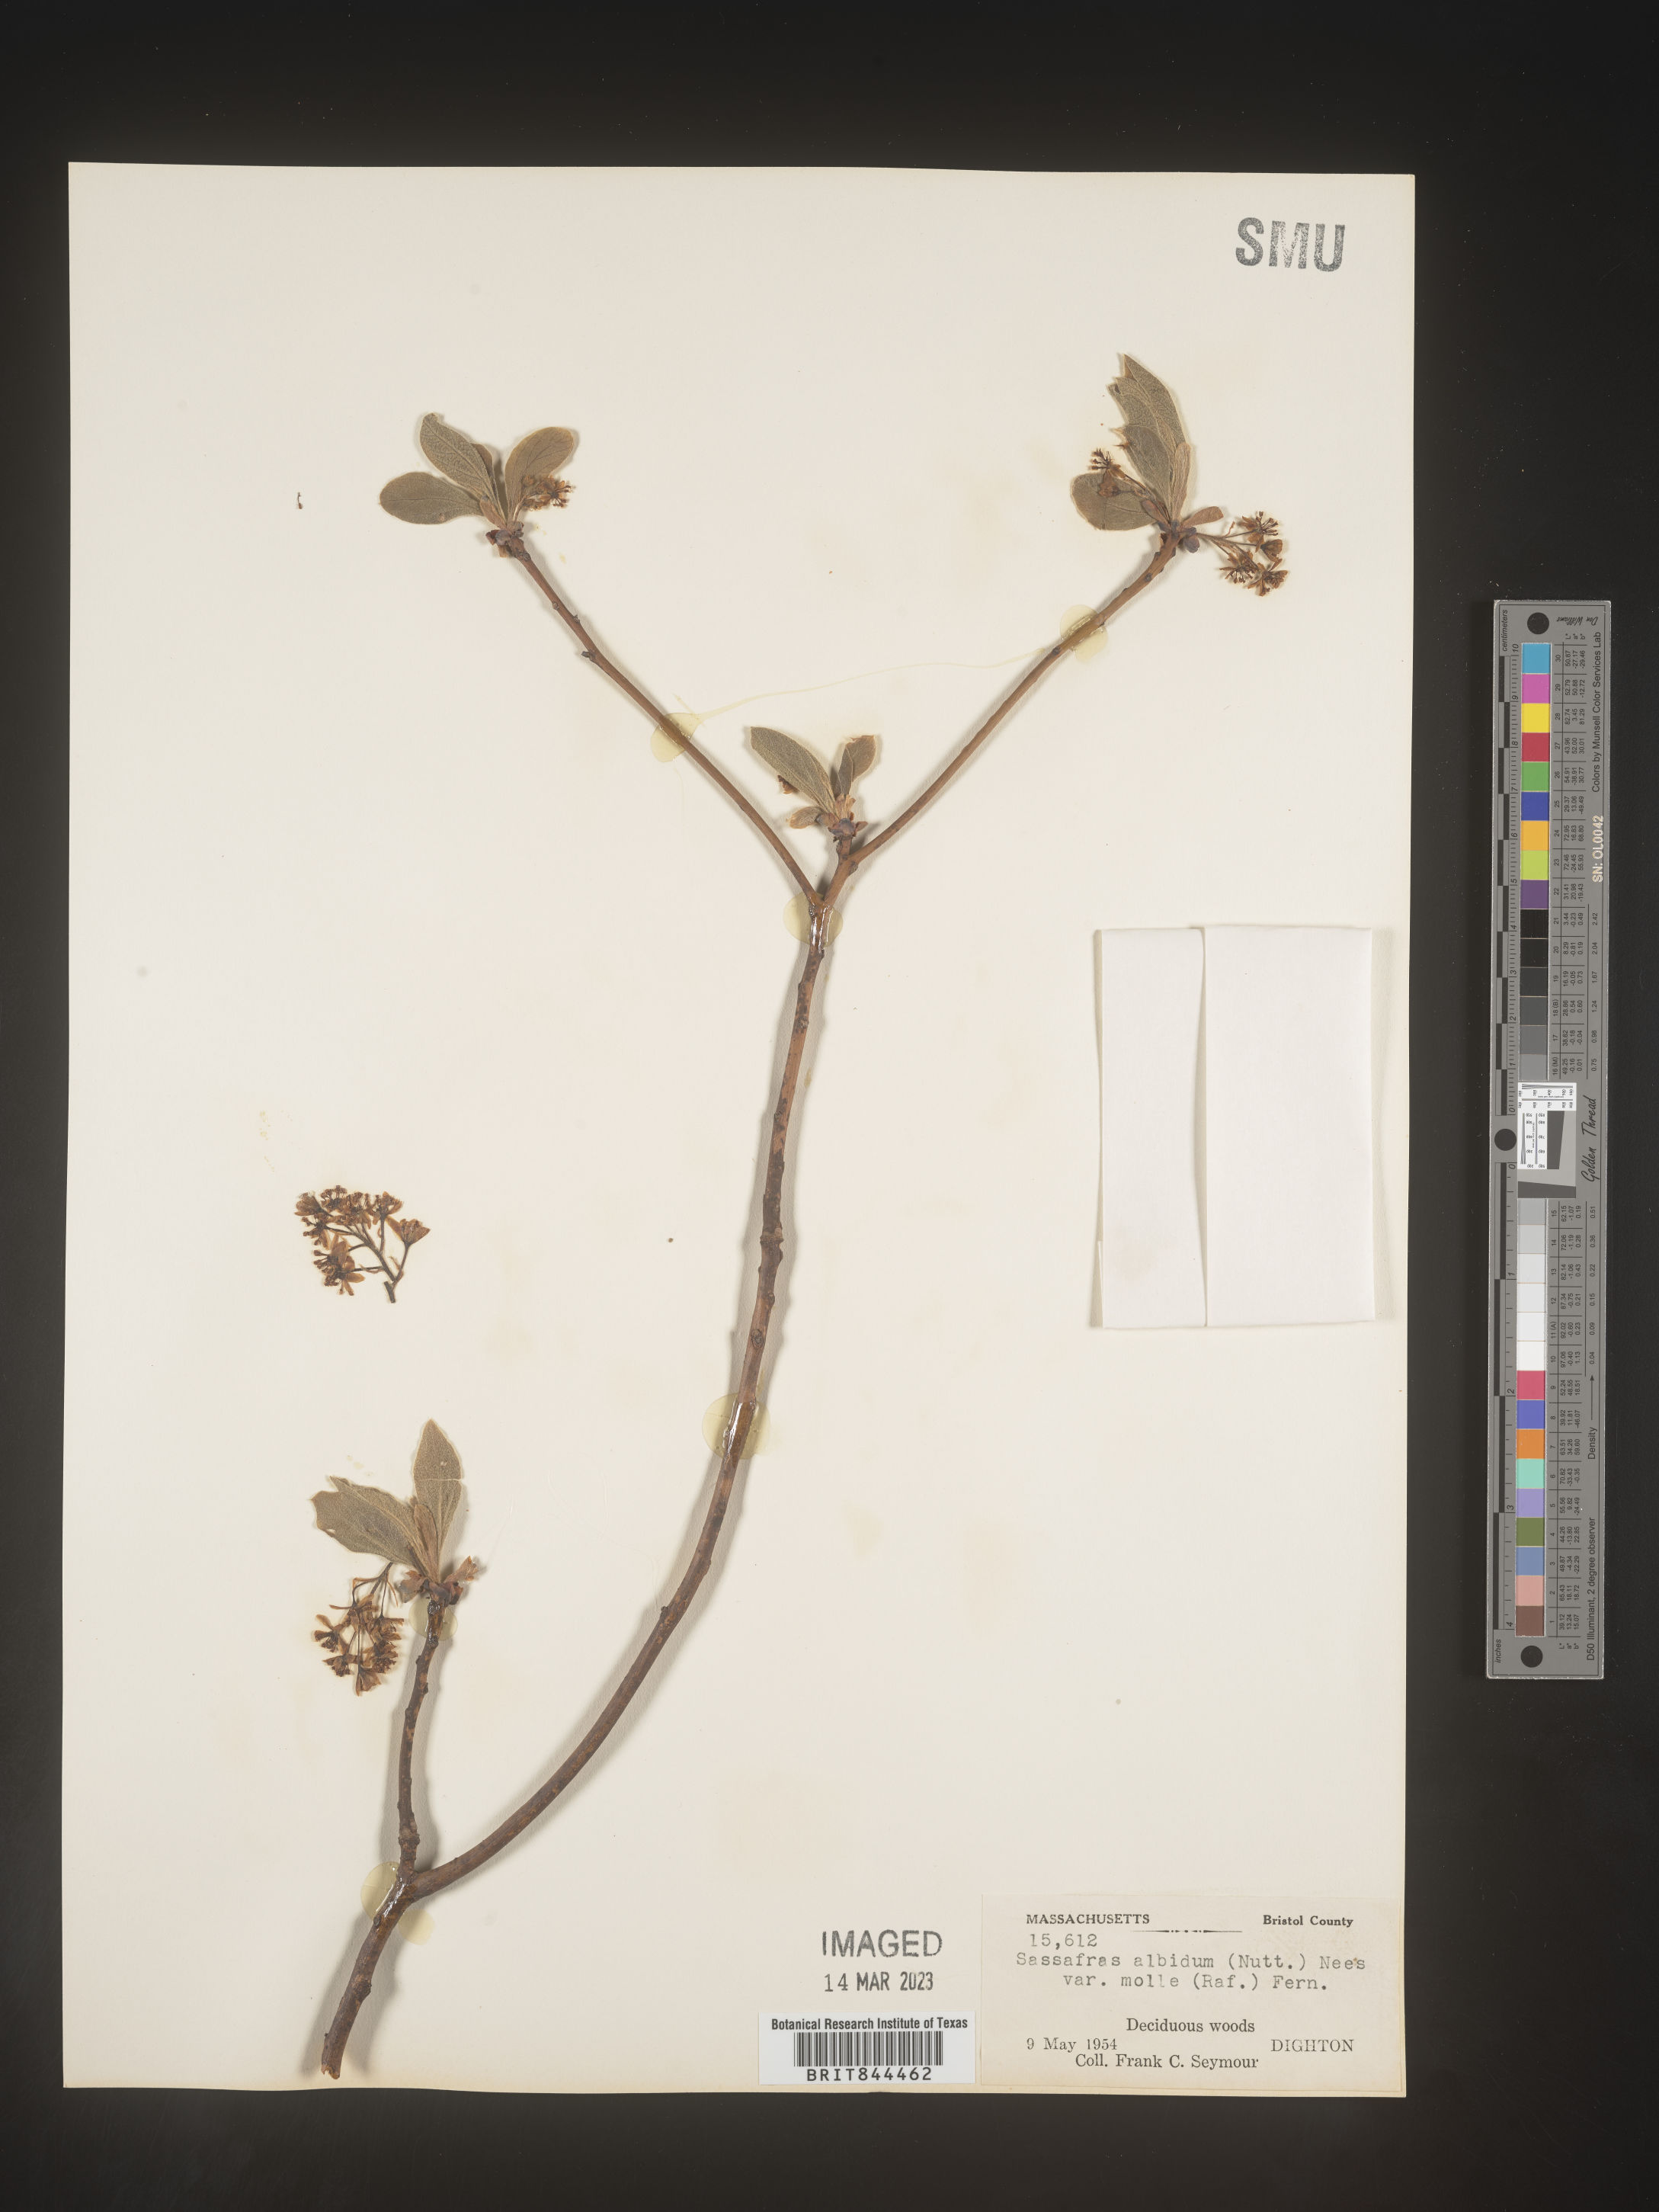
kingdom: Plantae
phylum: Tracheophyta
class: Magnoliopsida
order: Laurales
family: Lauraceae
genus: Sassafras
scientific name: Sassafras albidum
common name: Sassafras
